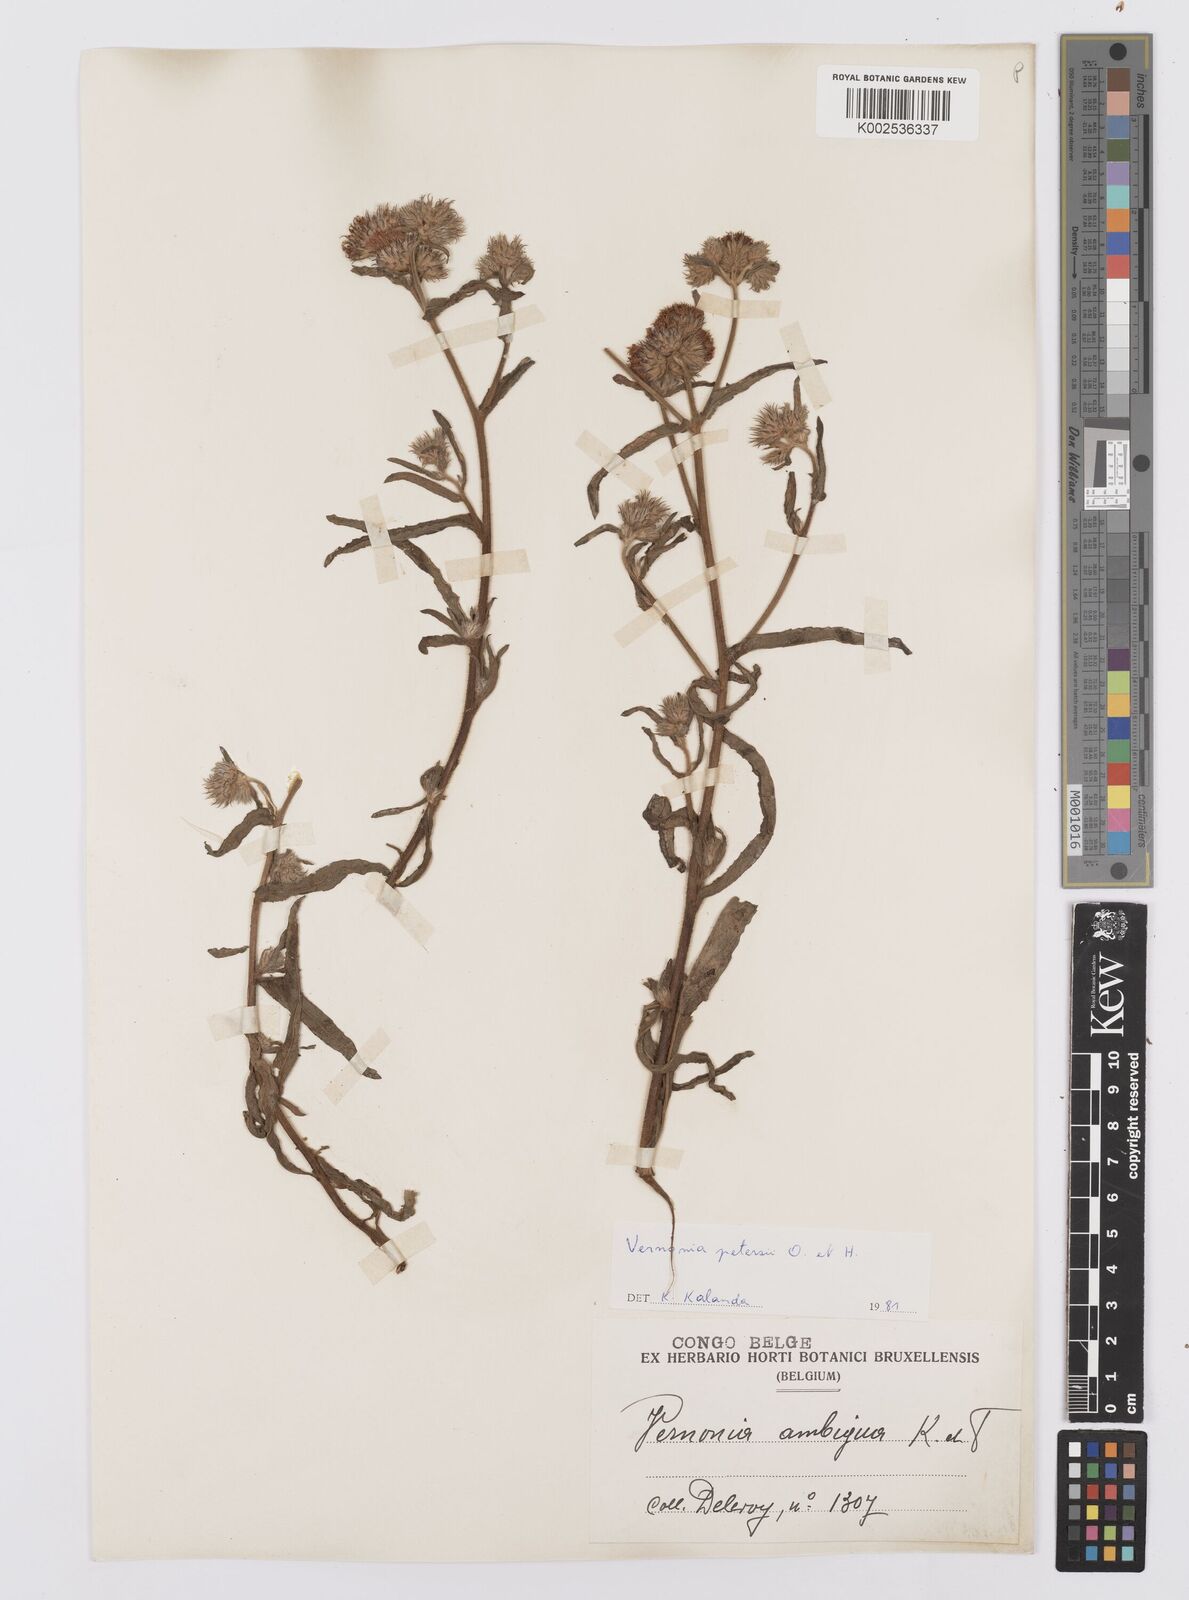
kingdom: Plantae
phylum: Tracheophyta
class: Magnoliopsida
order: Asterales
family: Asteraceae
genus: Vernoniastrum
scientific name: Vernoniastrum latifolium
